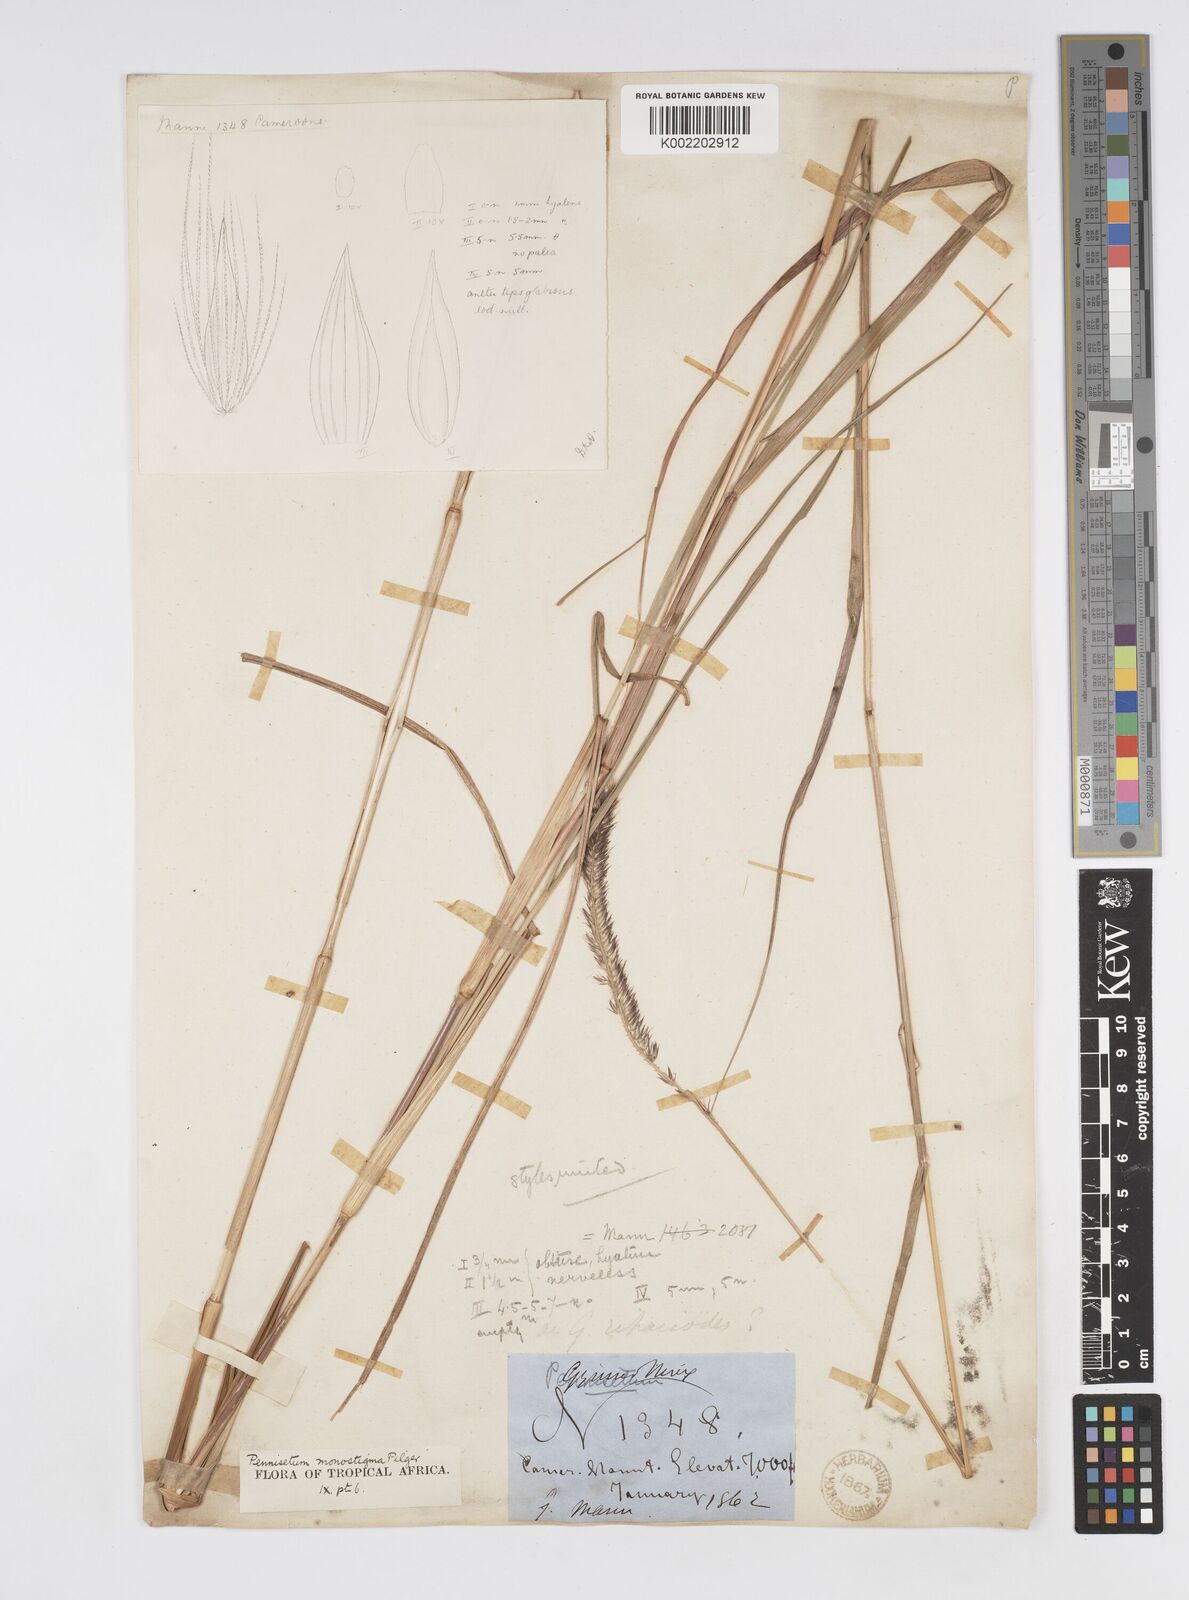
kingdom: Plantae
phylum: Tracheophyta
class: Liliopsida
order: Poales
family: Poaceae
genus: Cenchrus
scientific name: Cenchrus monostigma
